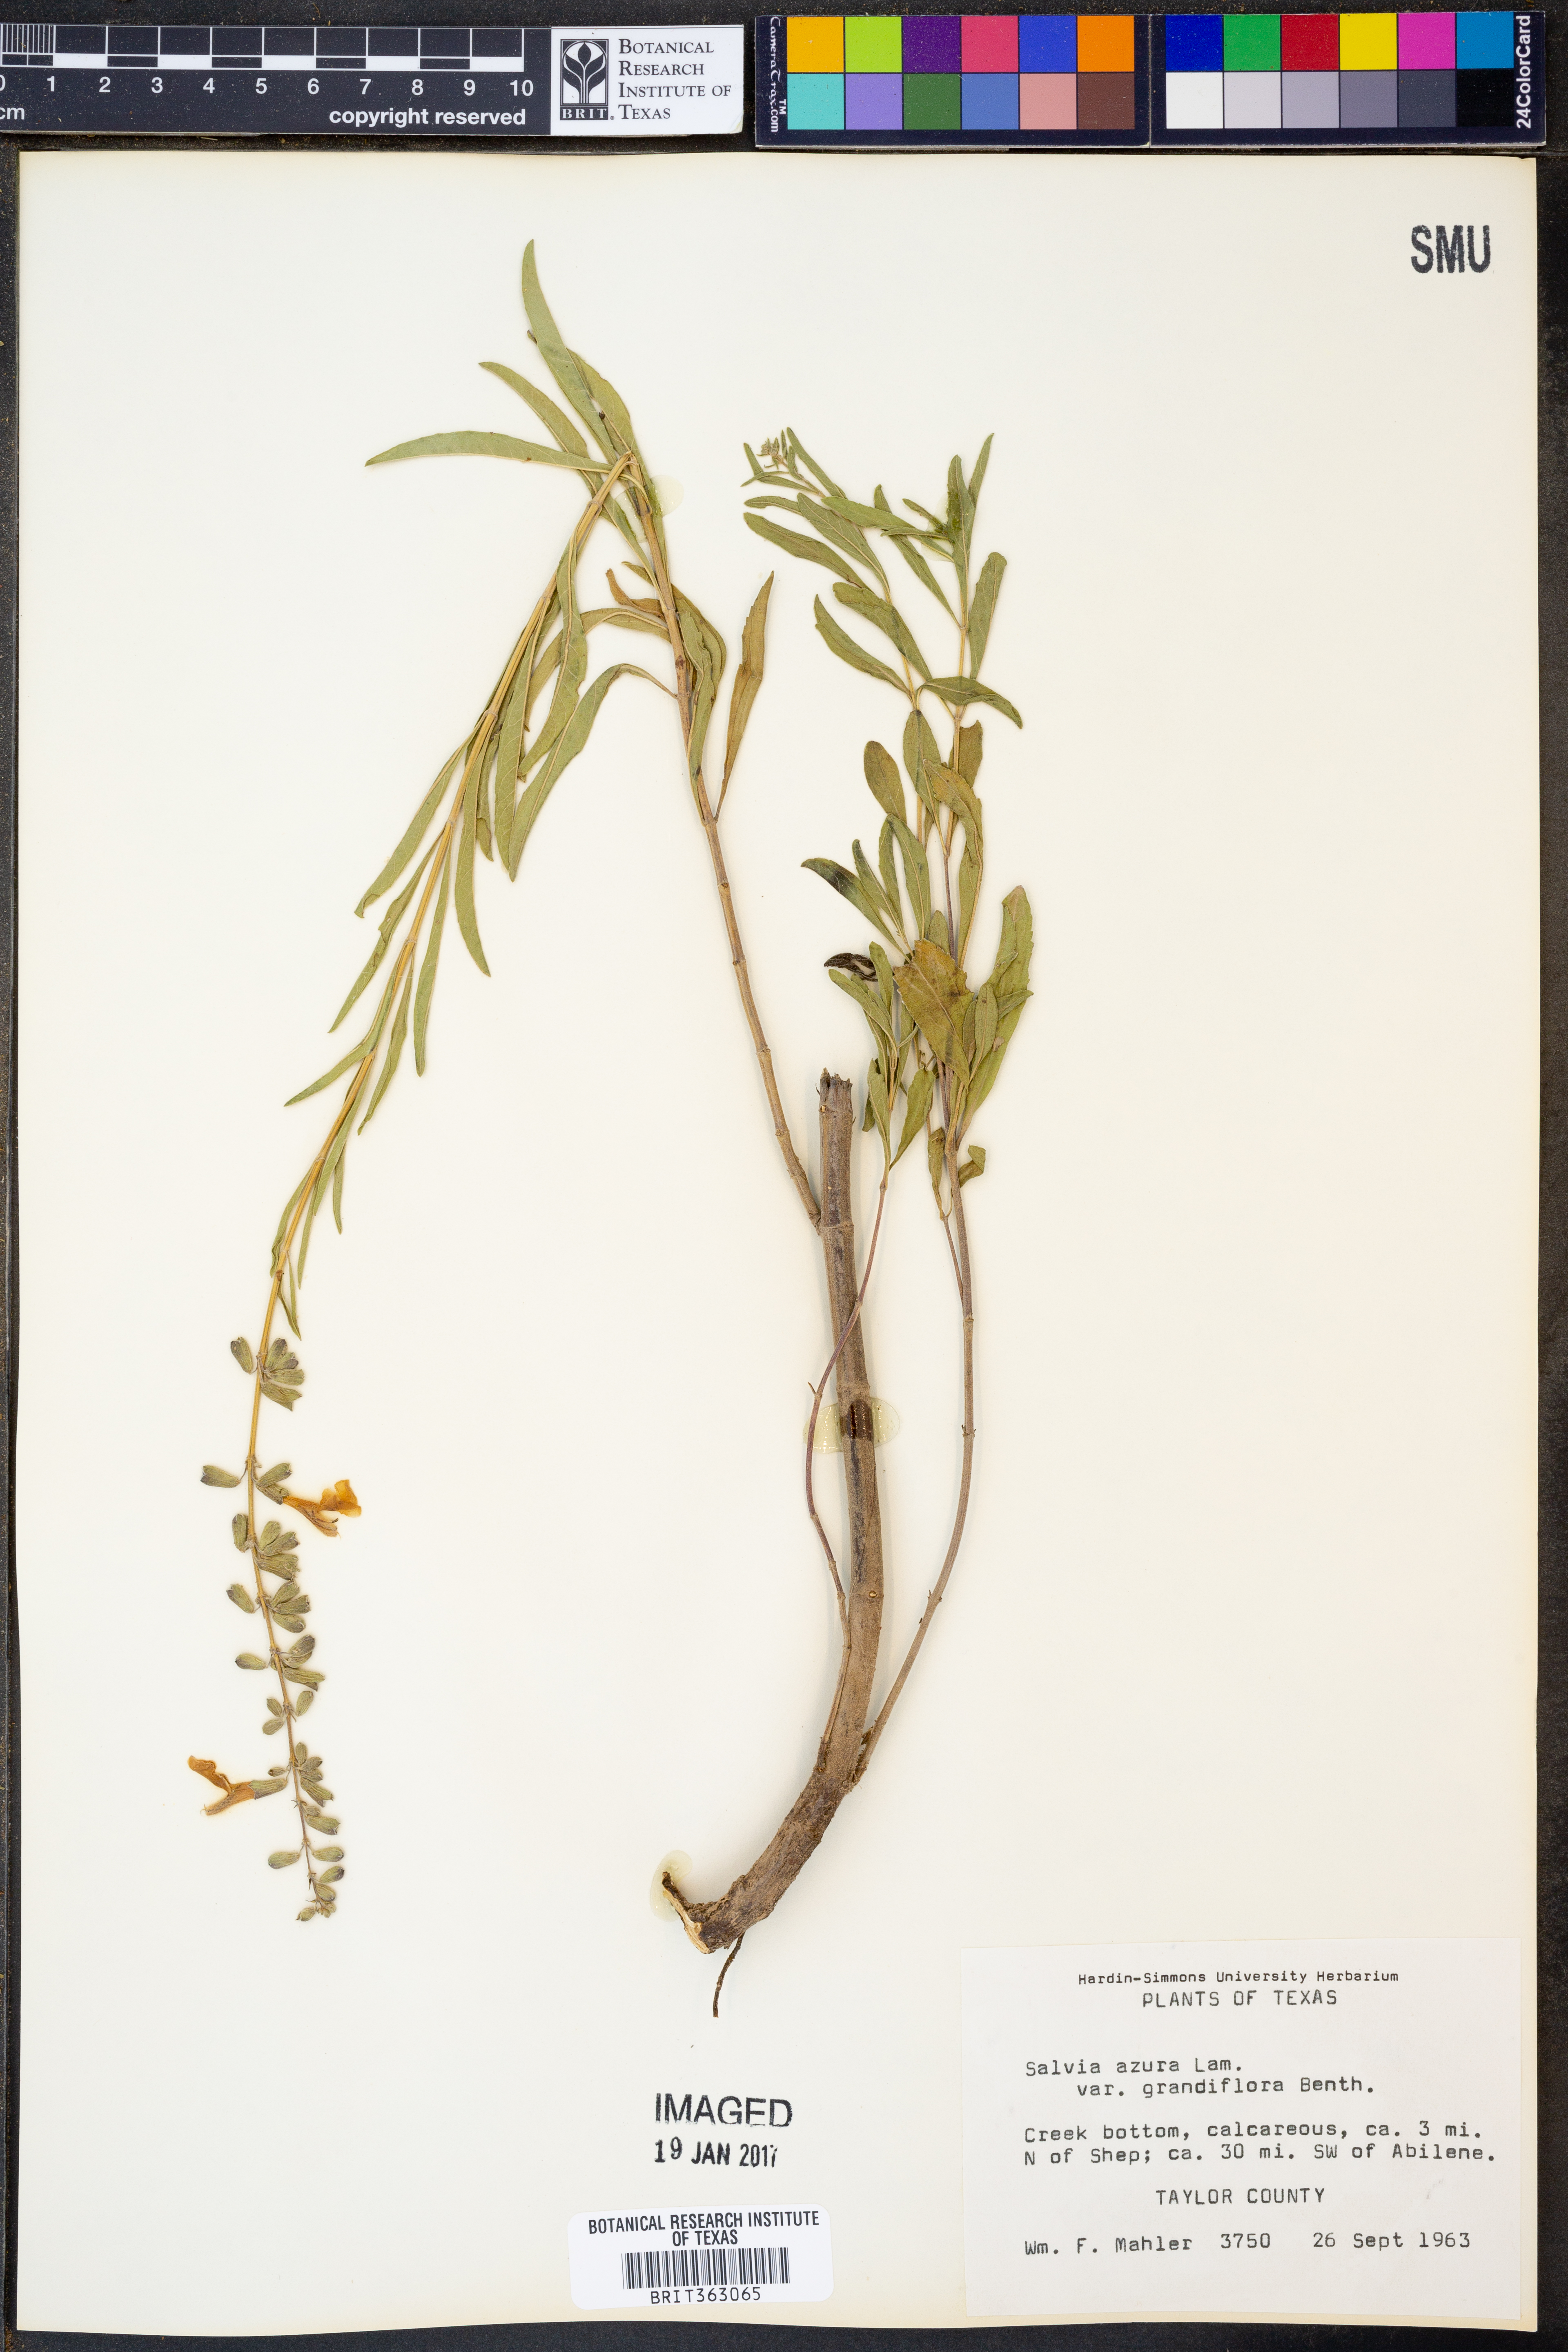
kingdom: Plantae
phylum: Tracheophyta
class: Magnoliopsida
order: Lamiales
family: Lamiaceae
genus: Salvia
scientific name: Salvia azurea
